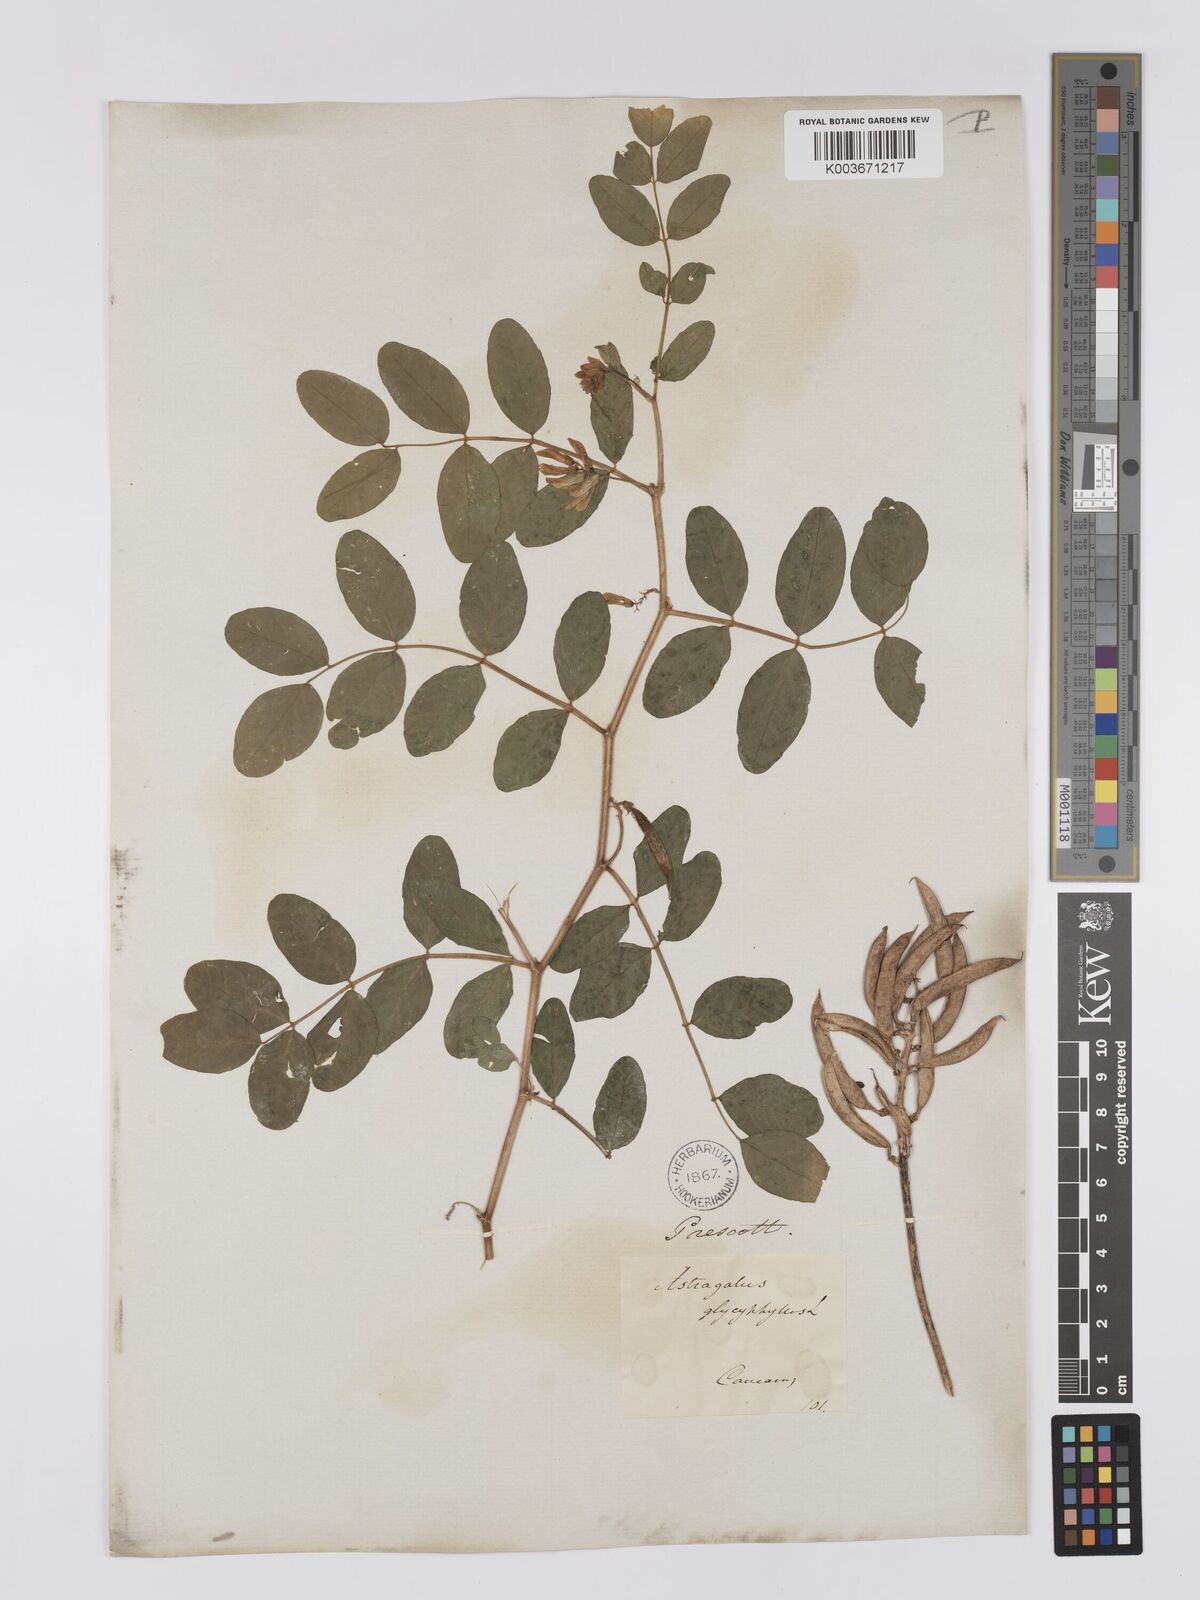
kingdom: Plantae
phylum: Tracheophyta
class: Magnoliopsida
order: Fabales
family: Fabaceae
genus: Astragalus
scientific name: Astragalus glycyphyllos
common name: Wild liquorice
